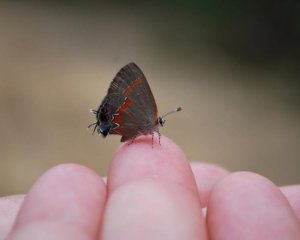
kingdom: Animalia
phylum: Arthropoda
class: Insecta
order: Lepidoptera
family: Lycaenidae
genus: Calycopis
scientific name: Calycopis cecrops
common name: Red-banded Hairstreak
